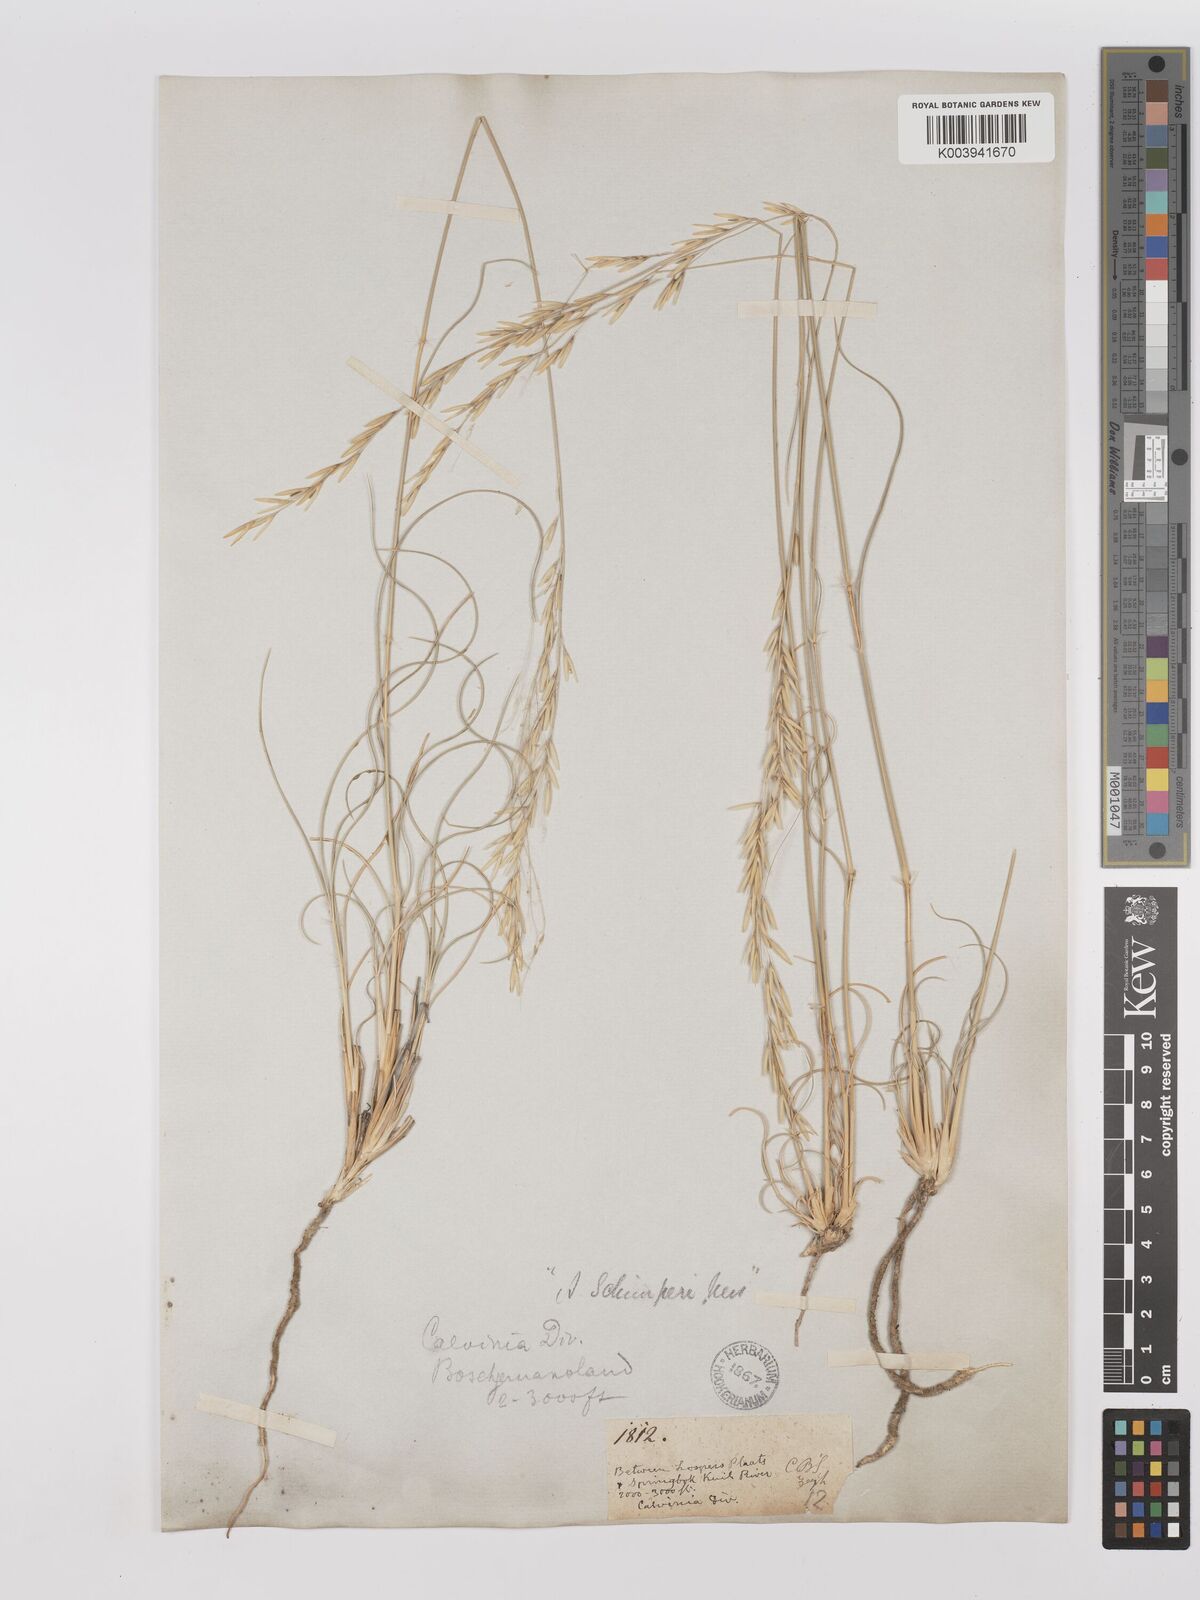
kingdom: Plantae
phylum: Tracheophyta
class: Liliopsida
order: Poales
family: Poaceae
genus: Stipagrostis
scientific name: Stipagrostis ciliata
